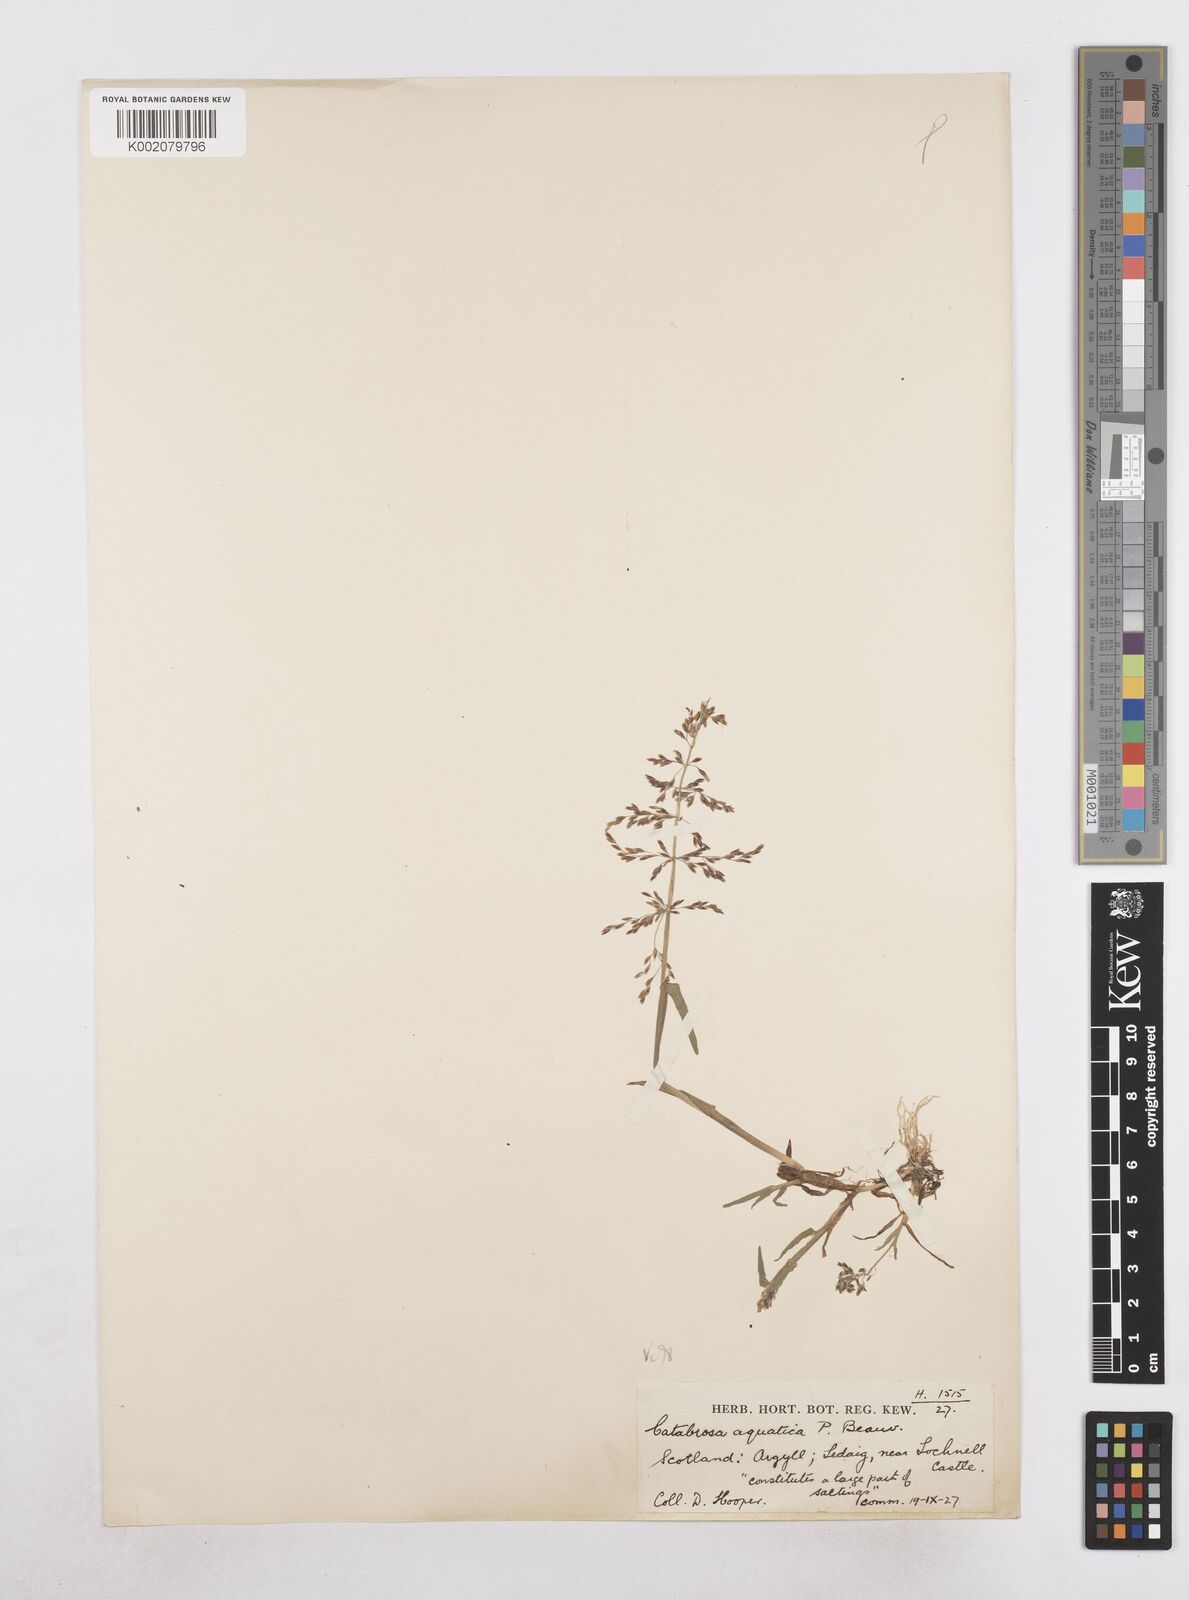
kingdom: Plantae
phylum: Tracheophyta
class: Liliopsida
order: Poales
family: Poaceae
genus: Catabrosa
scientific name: Catabrosa aquatica
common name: Whorl-grass
